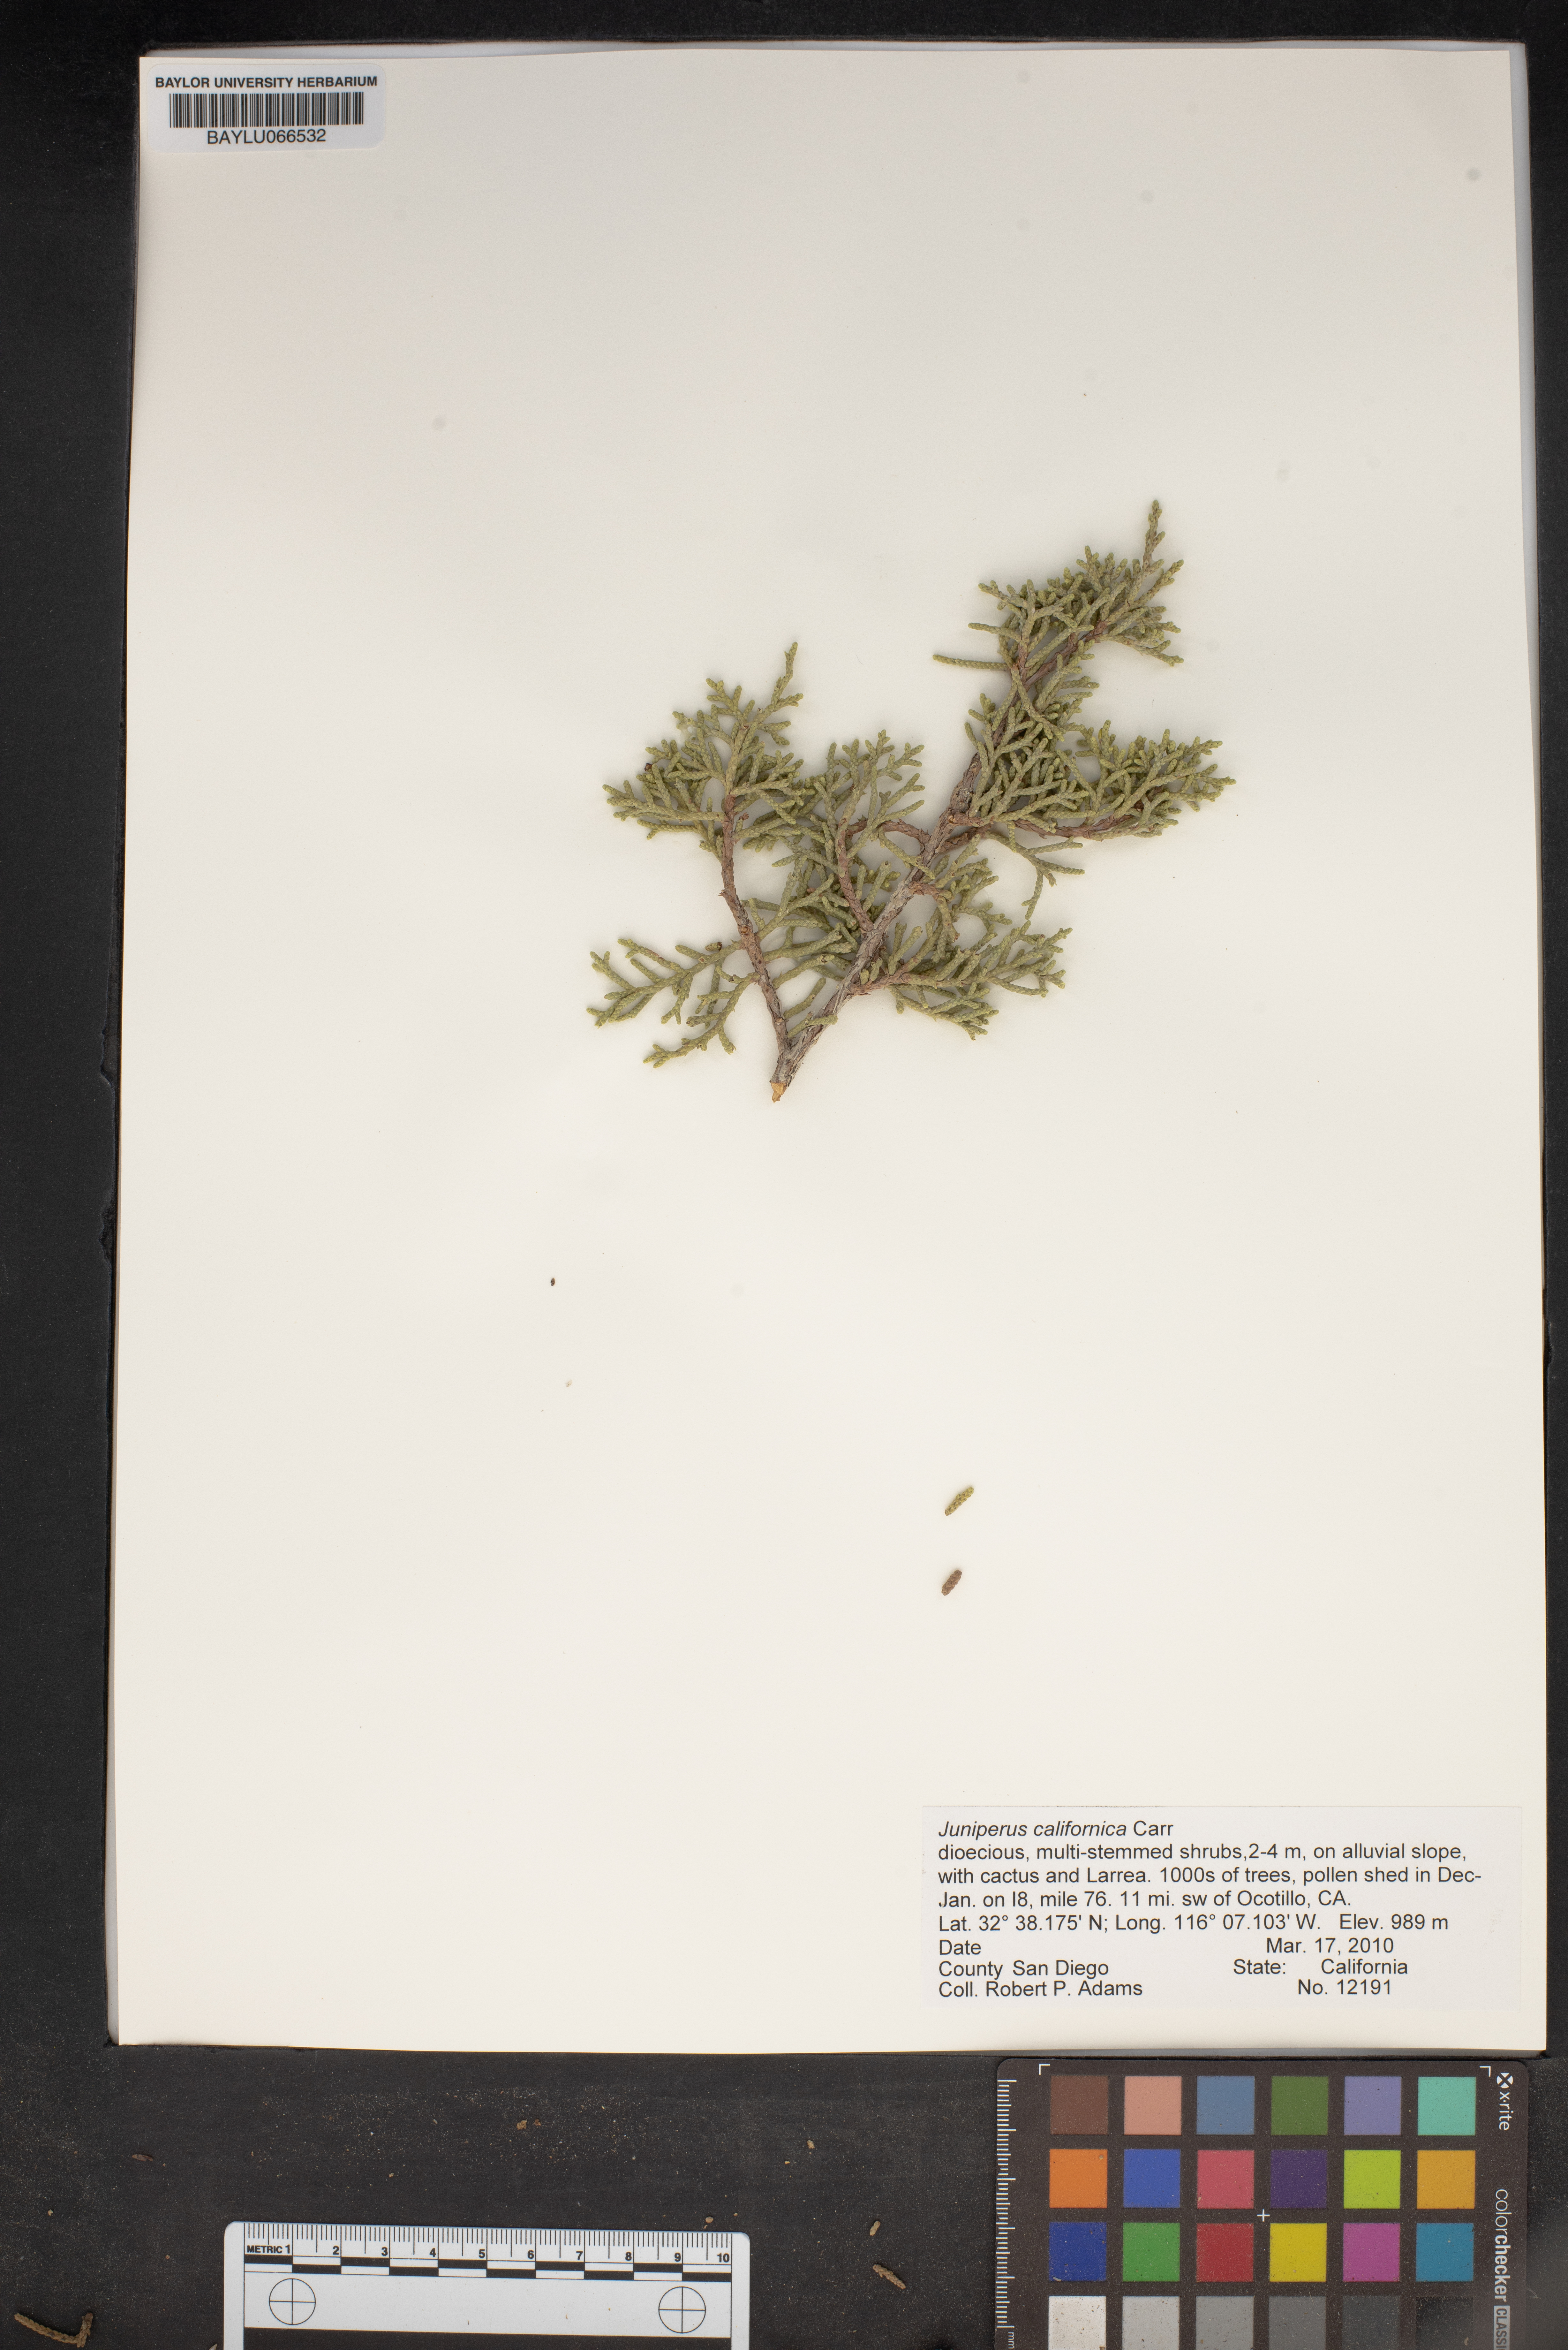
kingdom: Plantae
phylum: Tracheophyta
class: Pinopsida
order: Pinales
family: Cupressaceae
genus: Juniperus
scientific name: Juniperus californica
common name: California juniper
